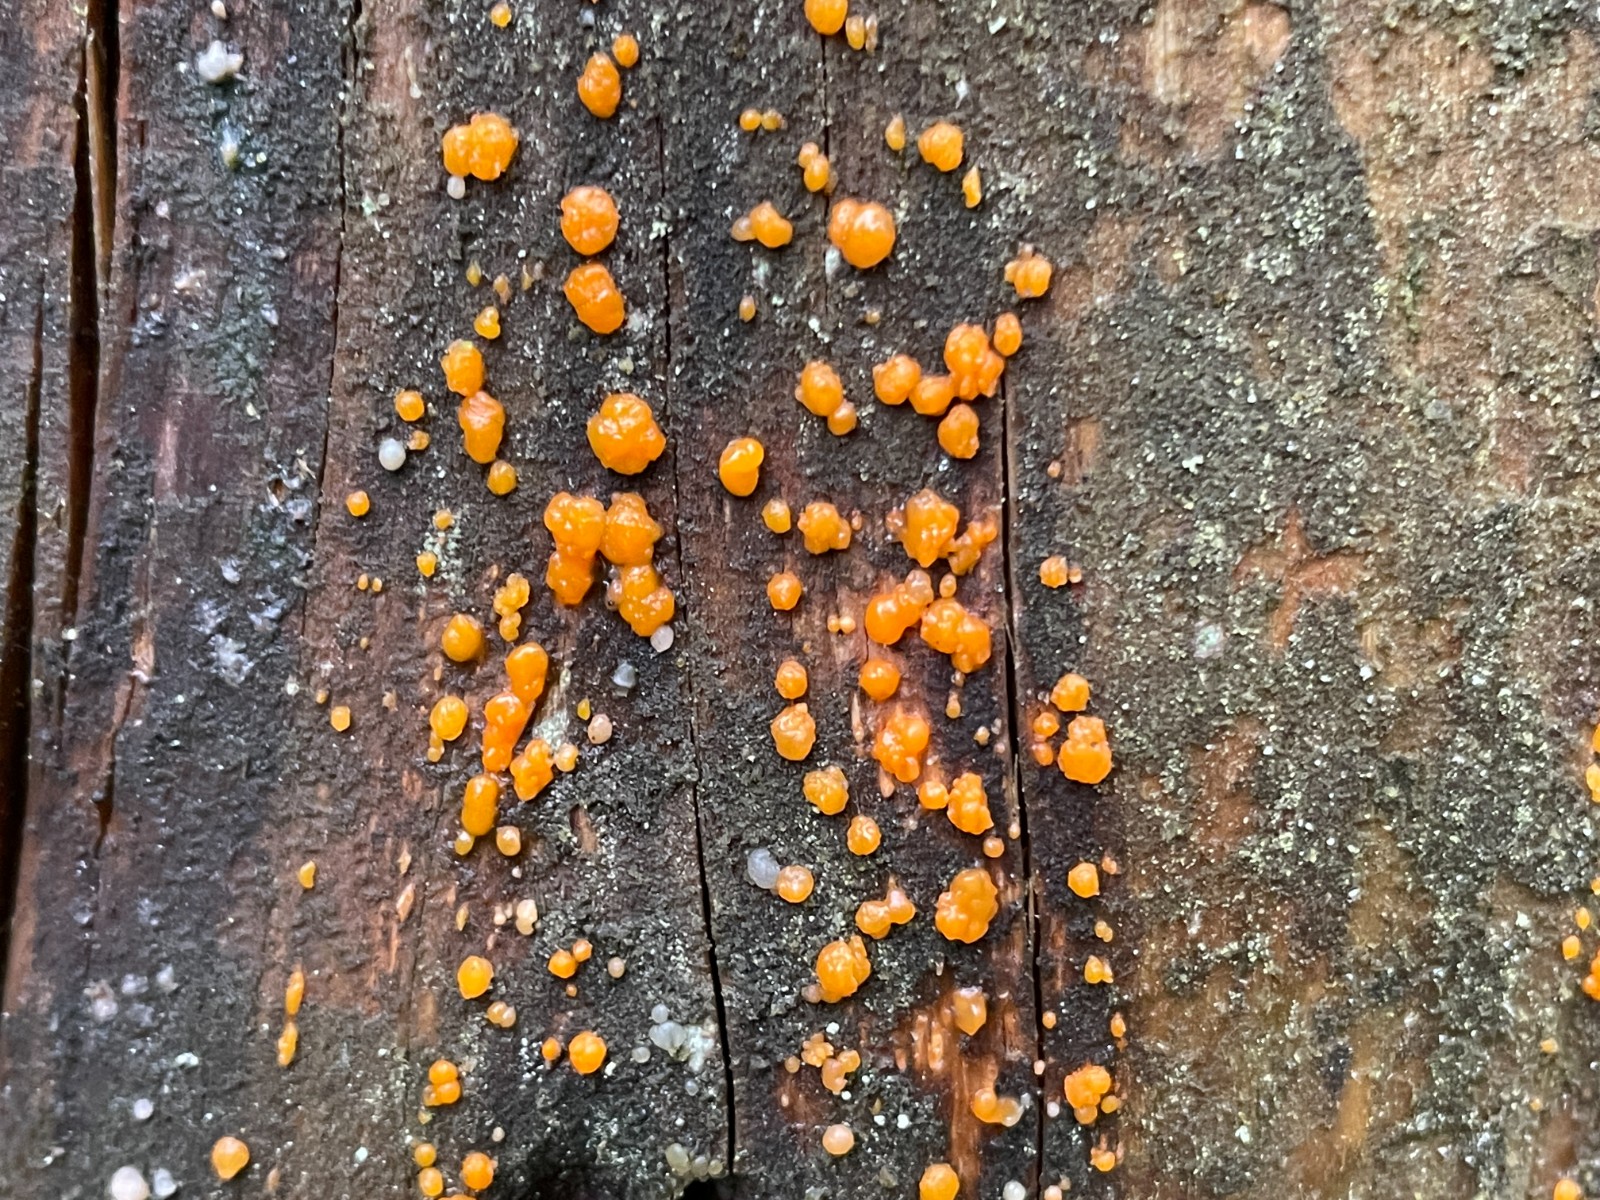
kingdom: Fungi
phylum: Basidiomycota
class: Dacrymycetes
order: Dacrymycetales
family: Dacrymycetaceae
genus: Dacrymyces
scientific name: Dacrymyces stillatus
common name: almindelig tåresvamp
